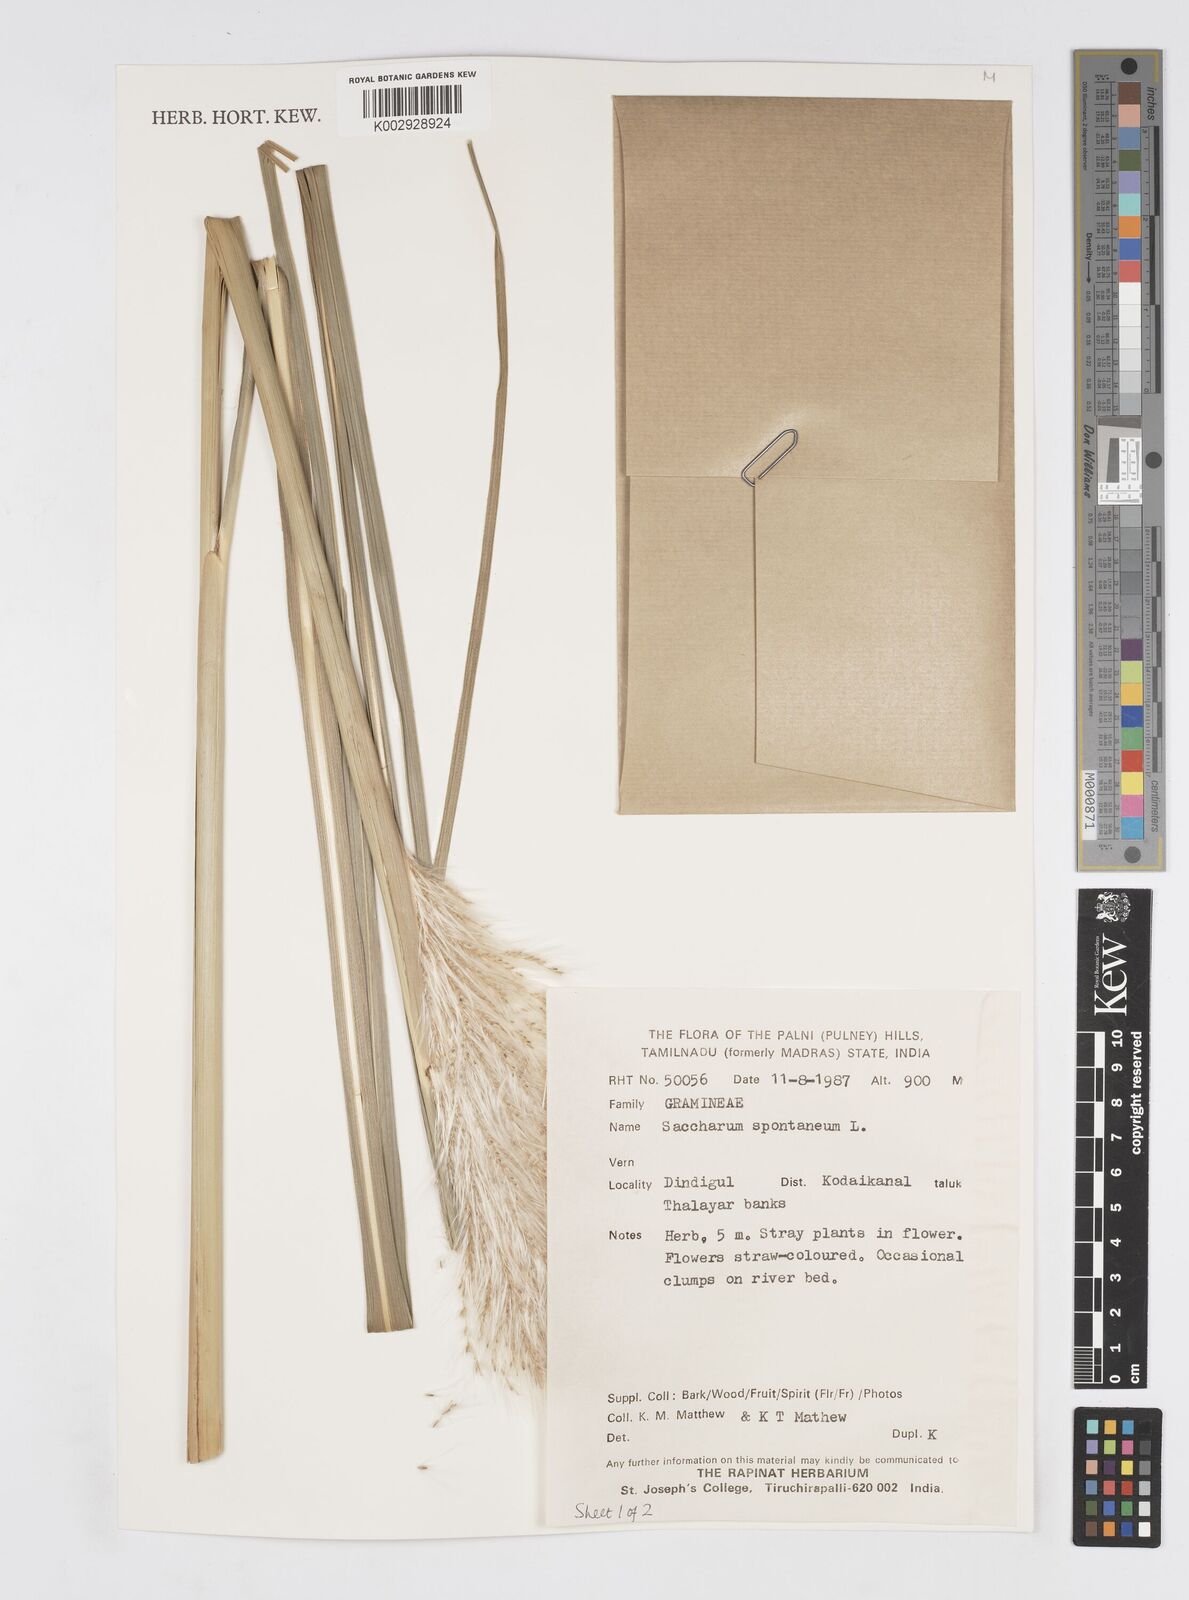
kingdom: Plantae
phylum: Tracheophyta
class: Liliopsida
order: Poales
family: Poaceae
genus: Saccharum
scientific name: Saccharum spontaneum
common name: Wild sugarcane
